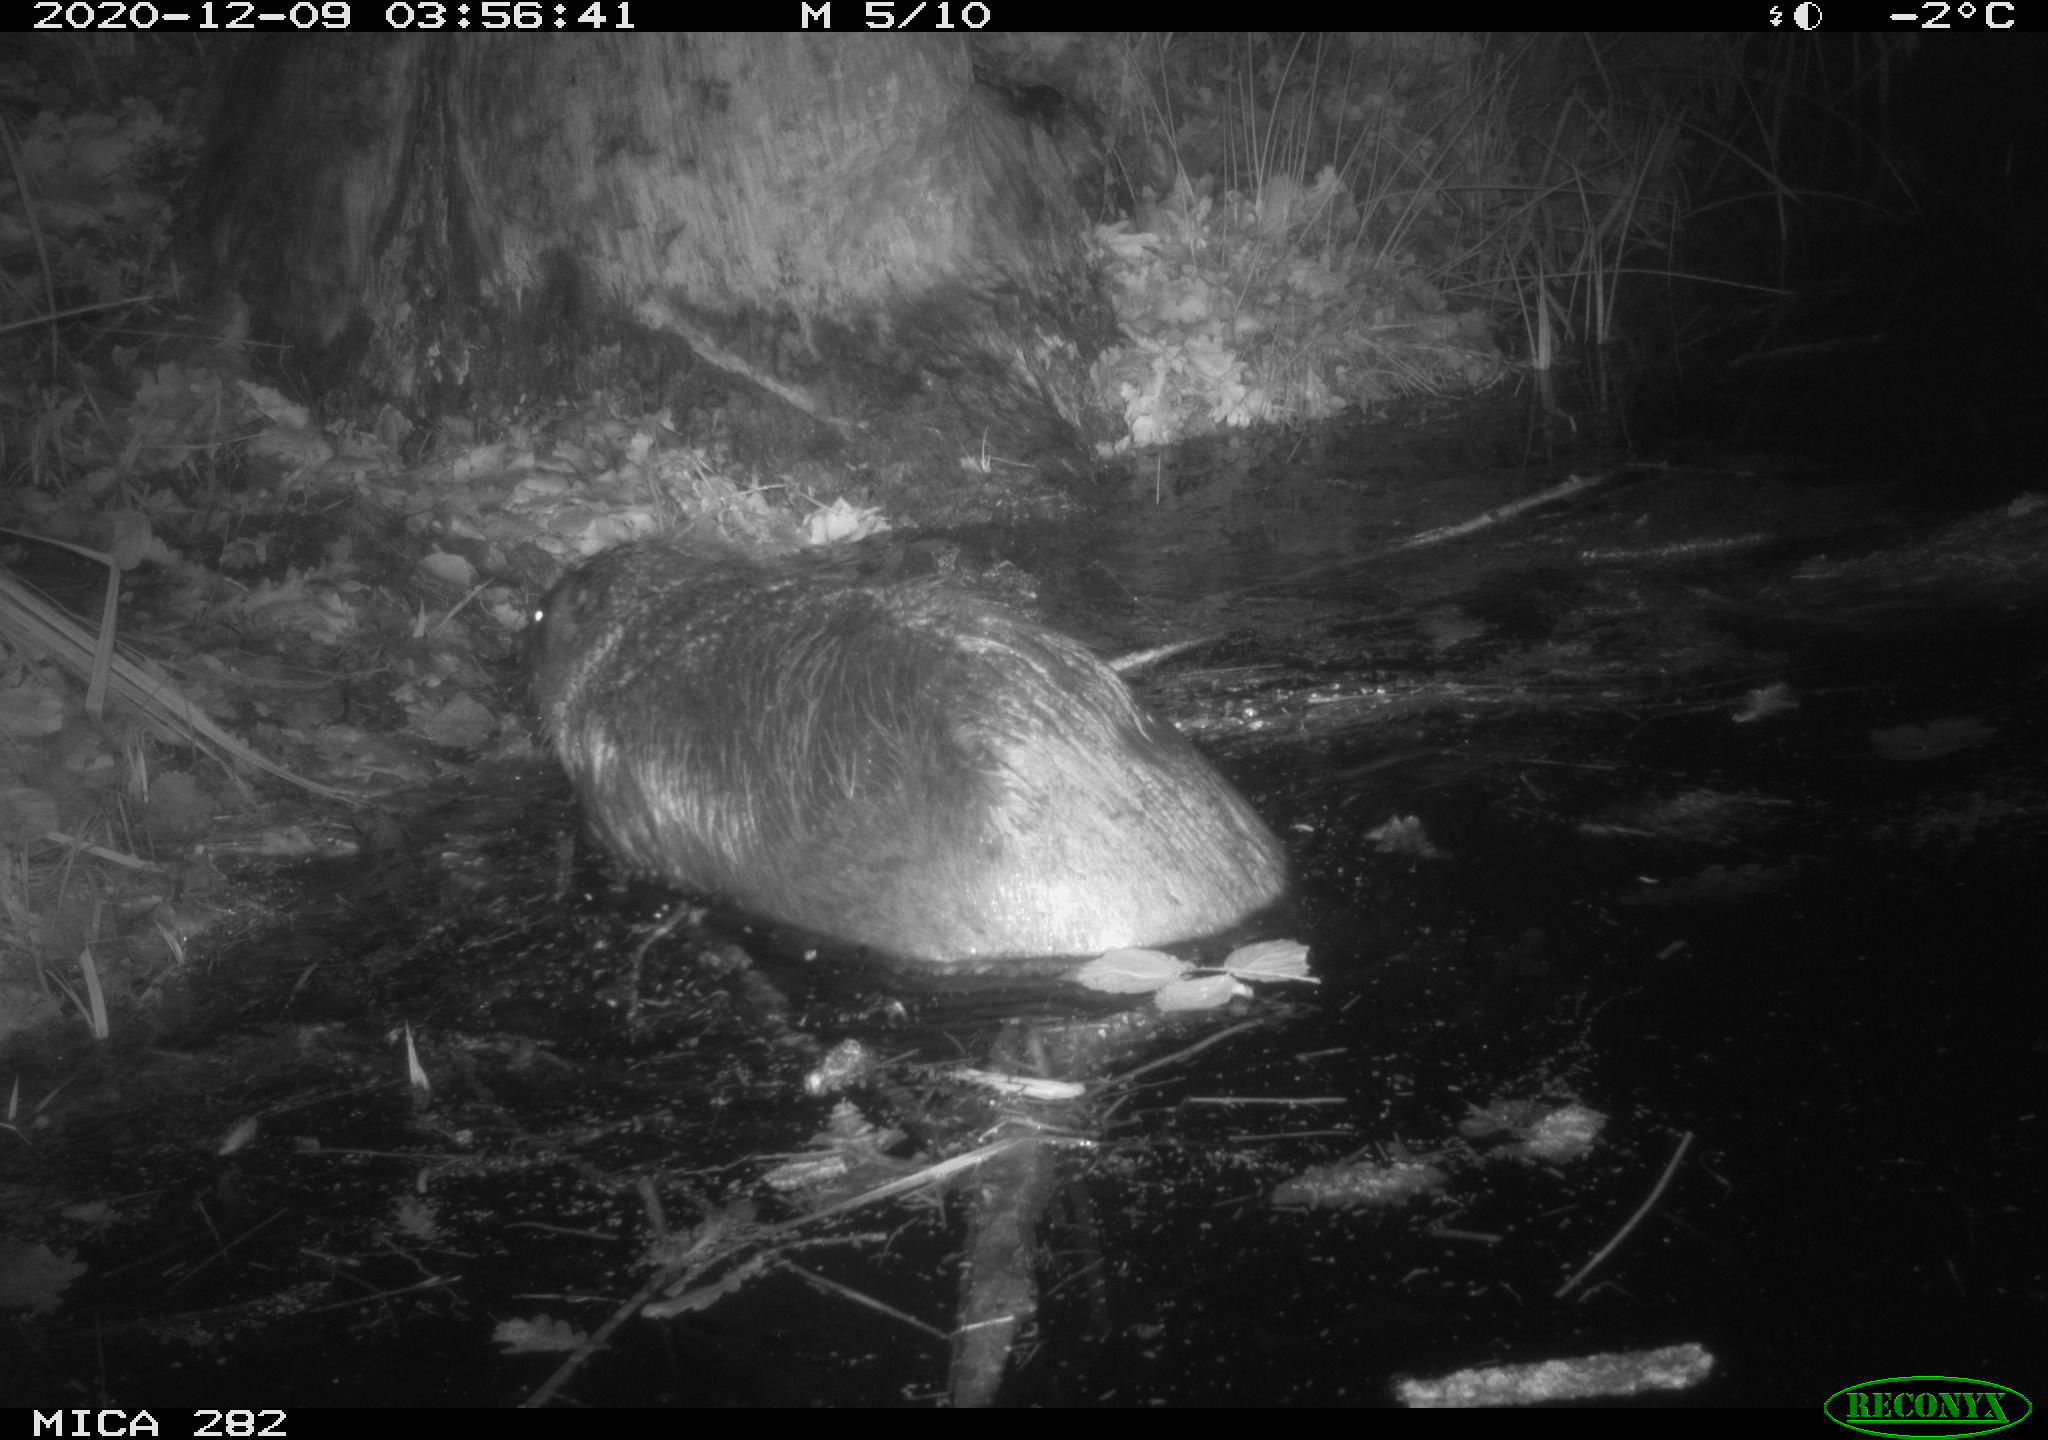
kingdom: Animalia
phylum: Chordata
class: Mammalia
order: Rodentia
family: Castoridae
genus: Castor
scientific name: Castor fiber
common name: Eurasian beaver
